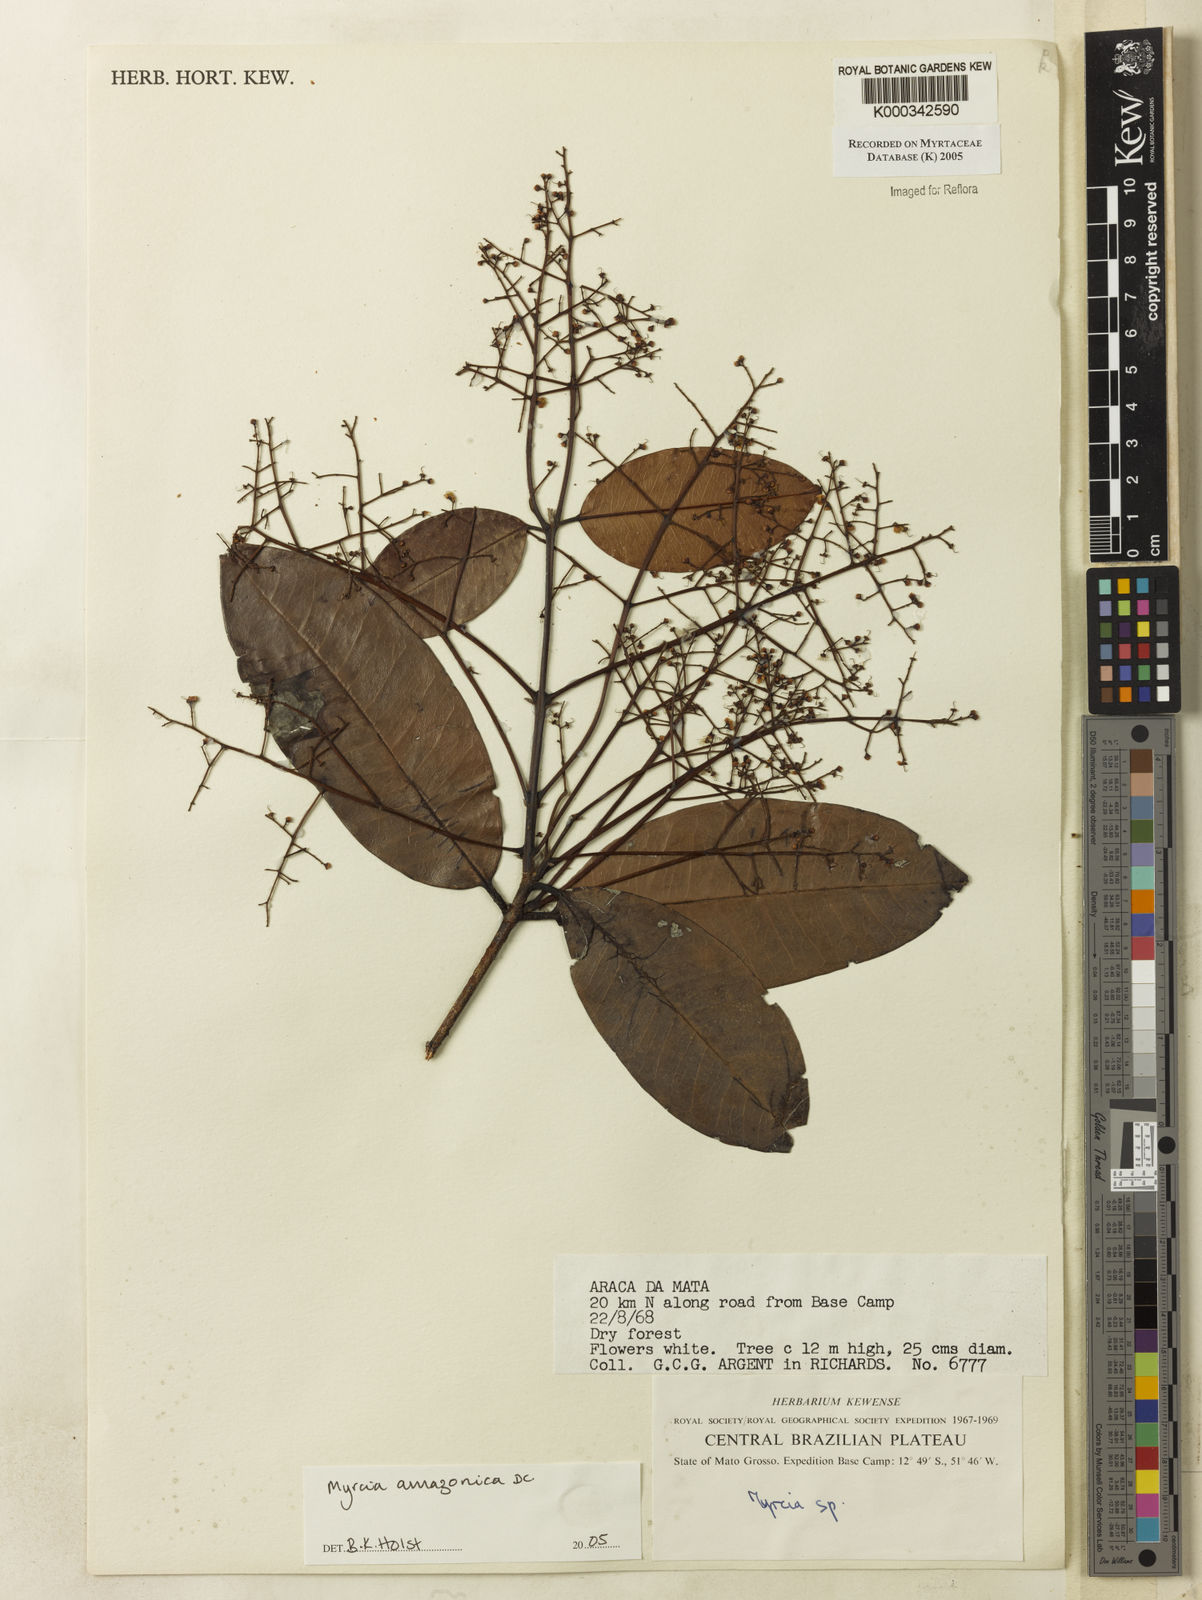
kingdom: Plantae
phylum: Tracheophyta
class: Magnoliopsida
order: Myrtales
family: Myrtaceae
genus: Myrcia
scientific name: Myrcia amazonica
